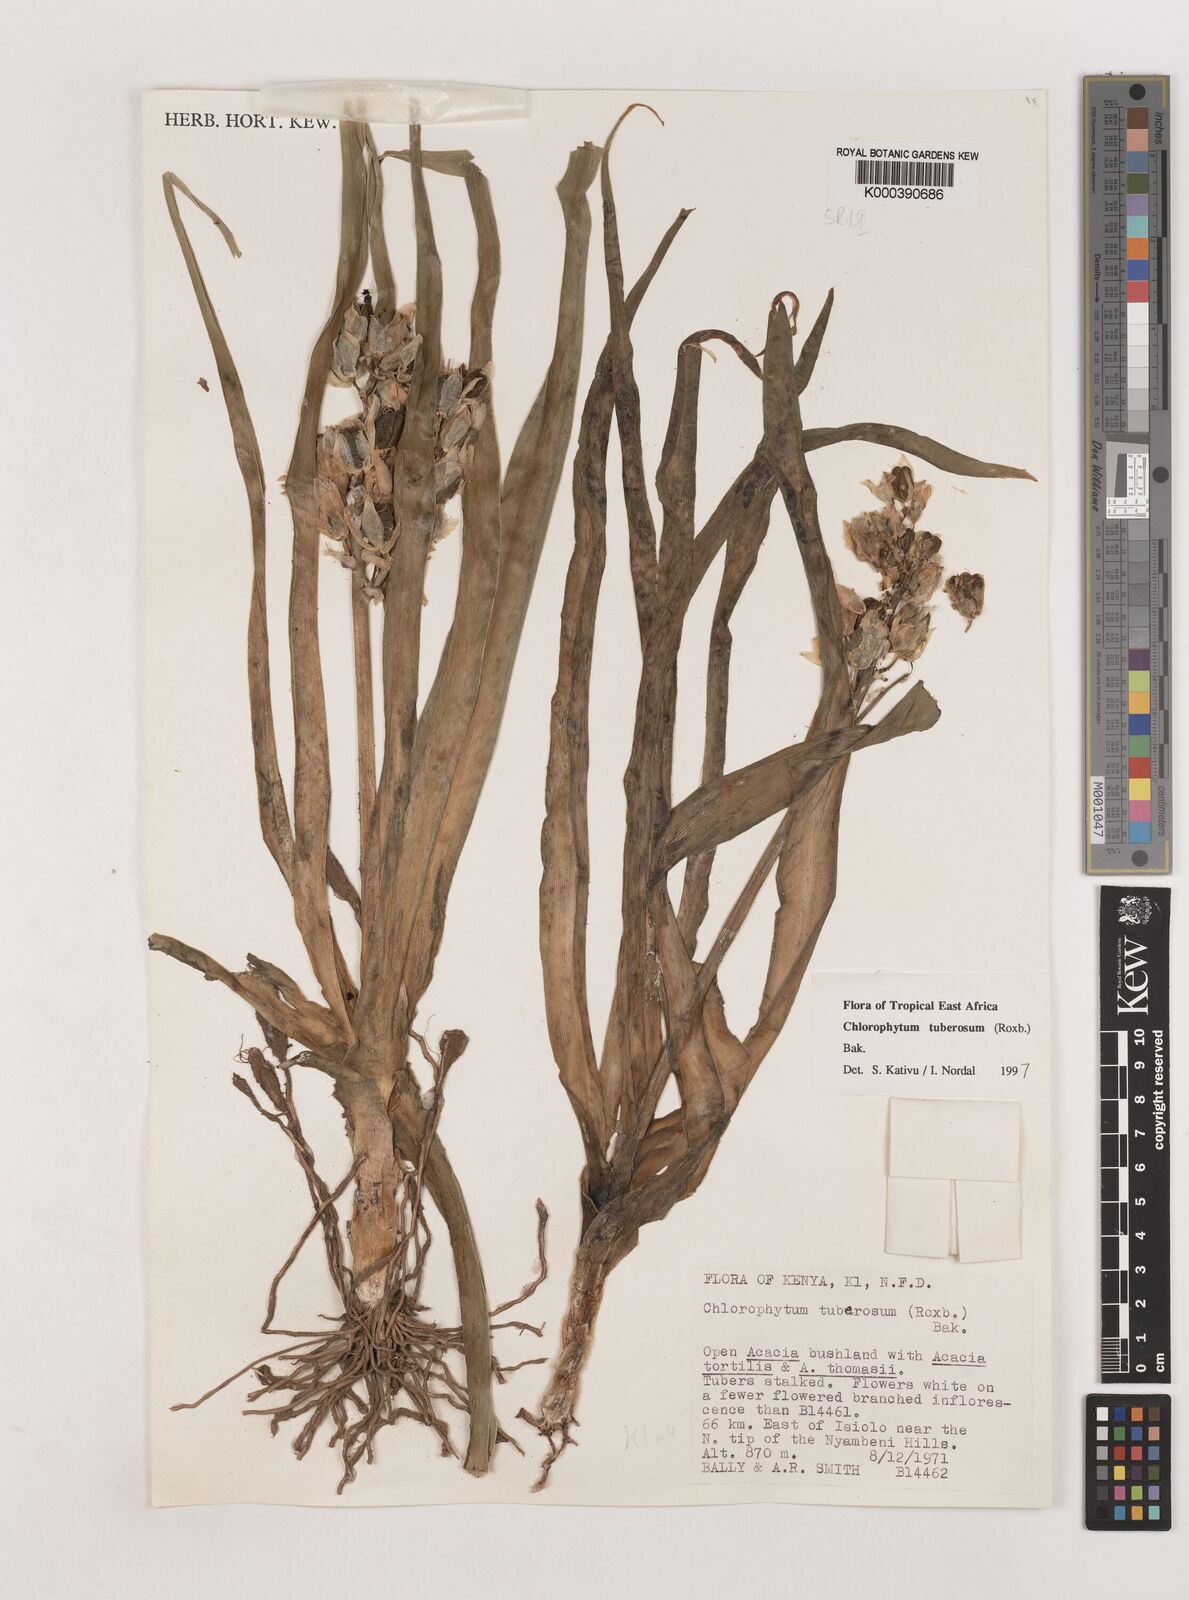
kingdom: Plantae
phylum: Tracheophyta
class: Liliopsida
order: Asparagales
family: Asparagaceae
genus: Chlorophytum
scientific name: Chlorophytum tuberosum
